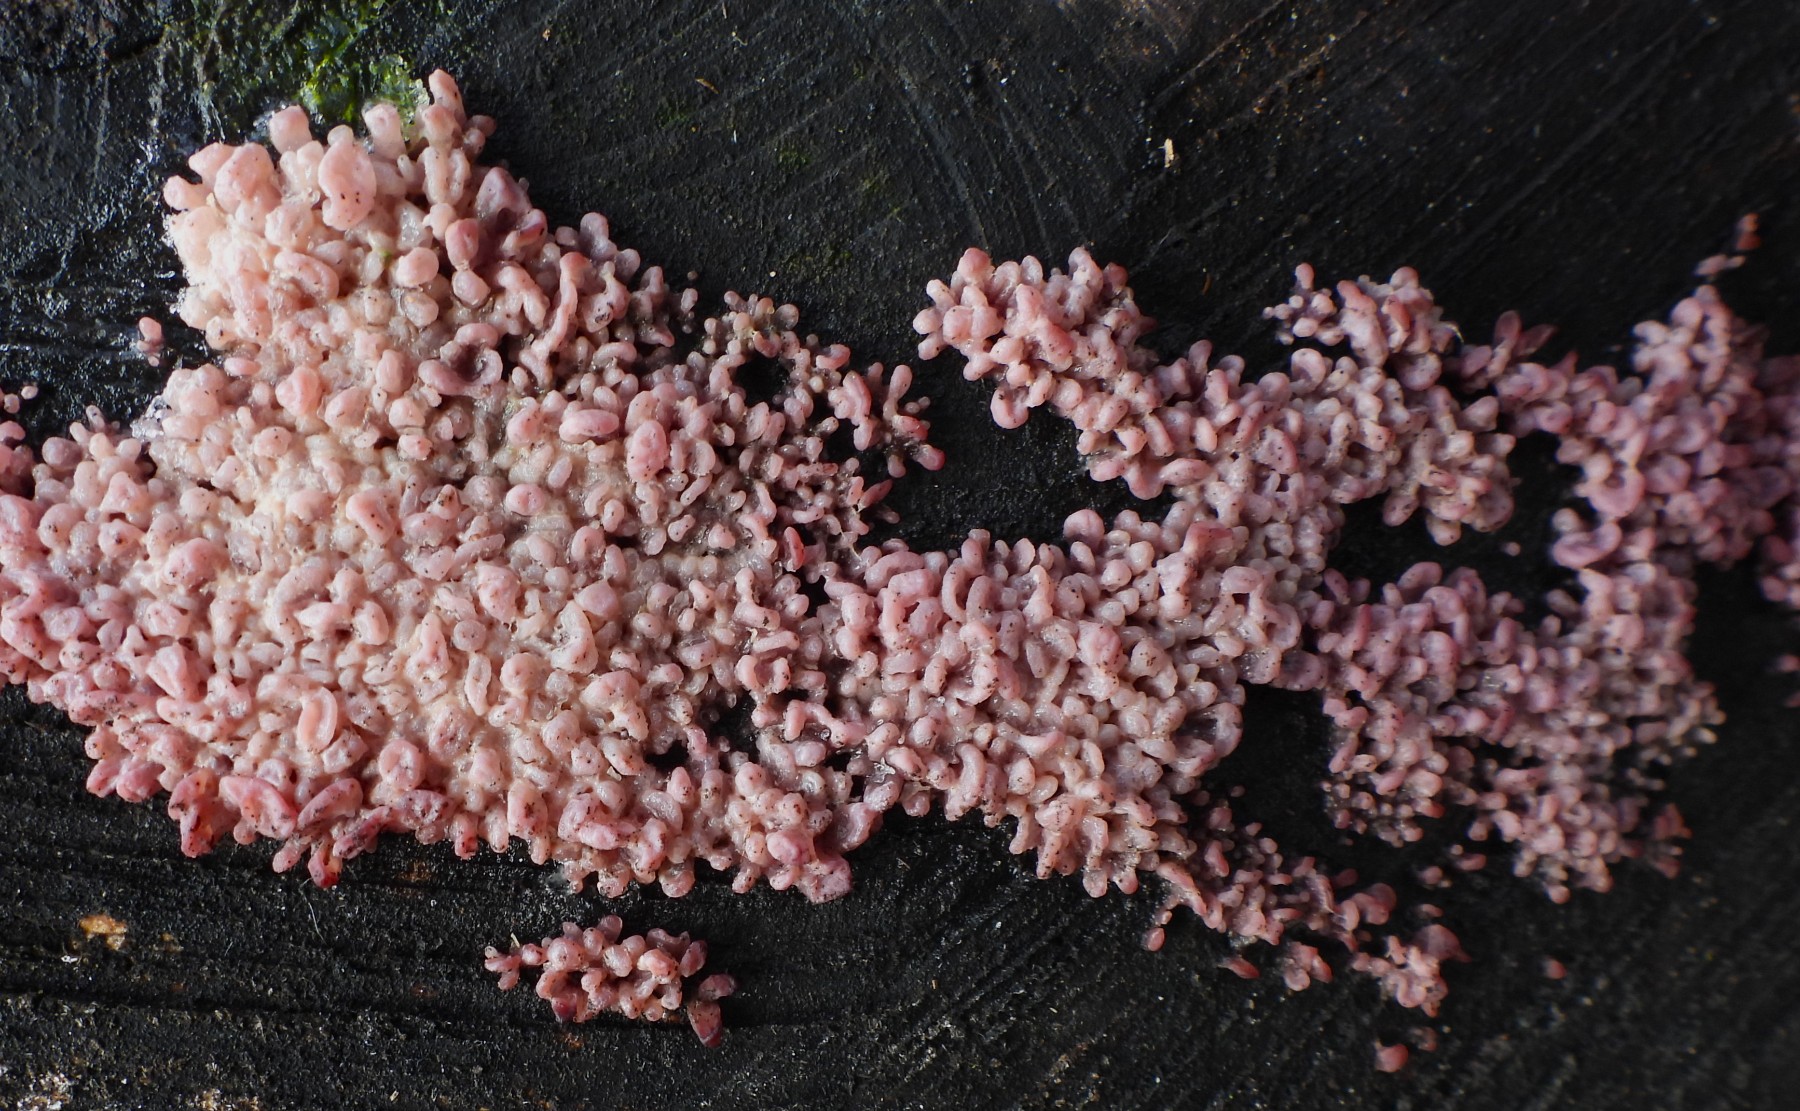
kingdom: Fungi
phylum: Ascomycota
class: Leotiomycetes
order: Helotiales
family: Gelatinodiscaceae
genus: Ascocoryne
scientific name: Ascocoryne sarcoides
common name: rødlilla sejskive
